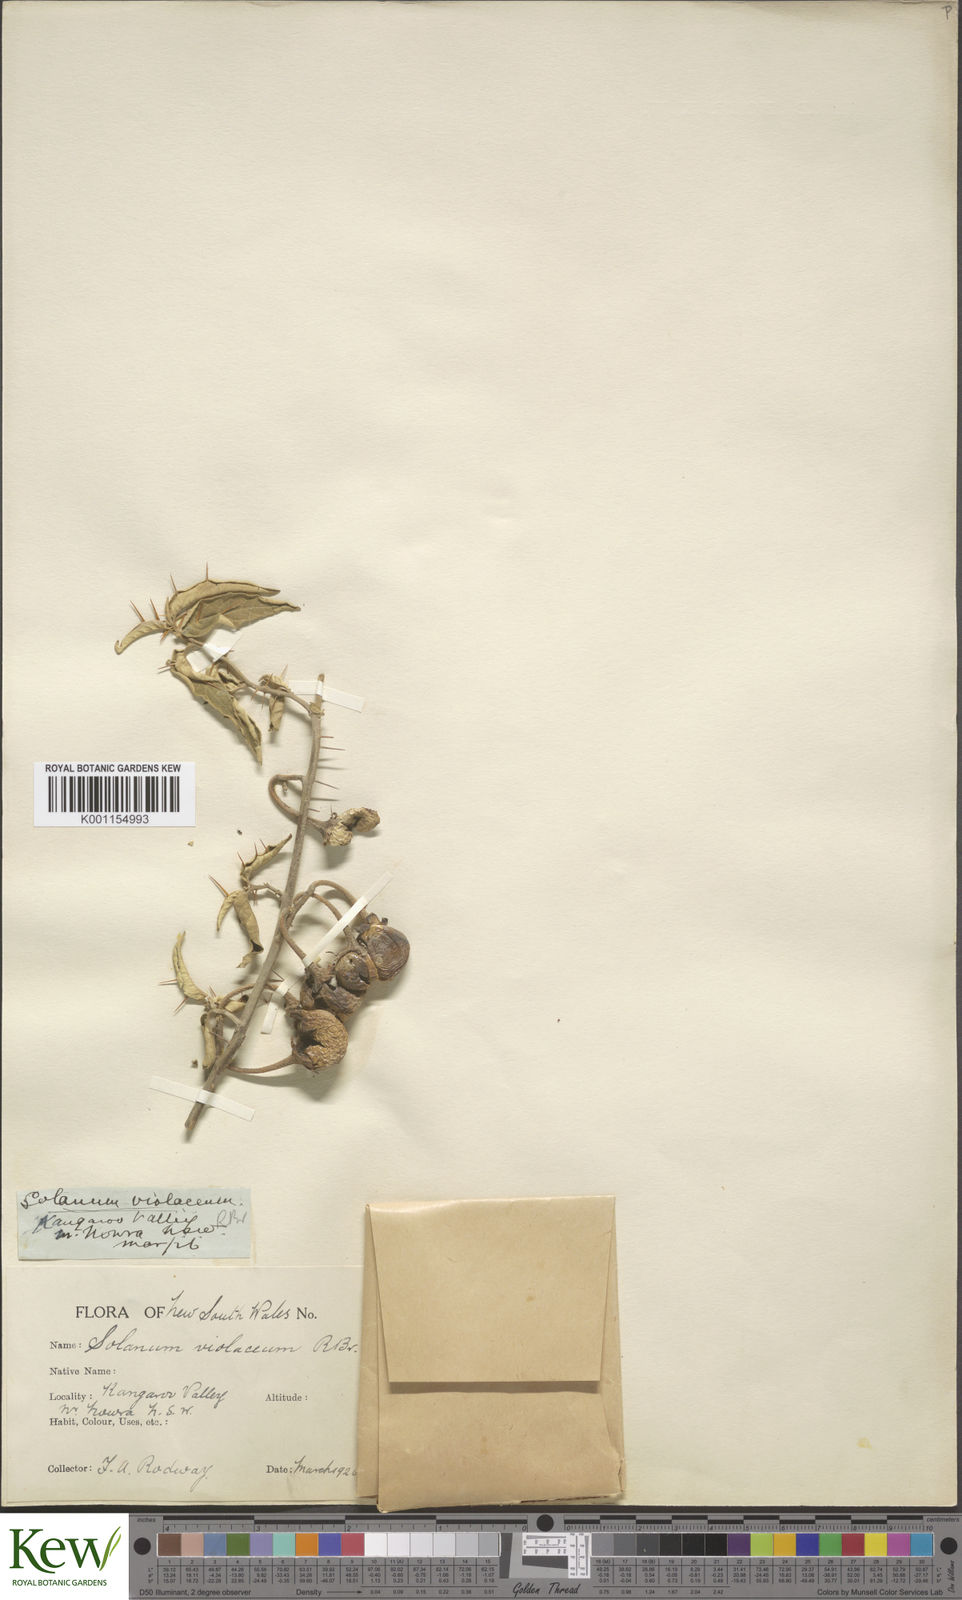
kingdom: Plantae
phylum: Tracheophyta
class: Magnoliopsida
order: Solanales
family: Solanaceae
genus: Solanum
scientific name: Solanum brownii
